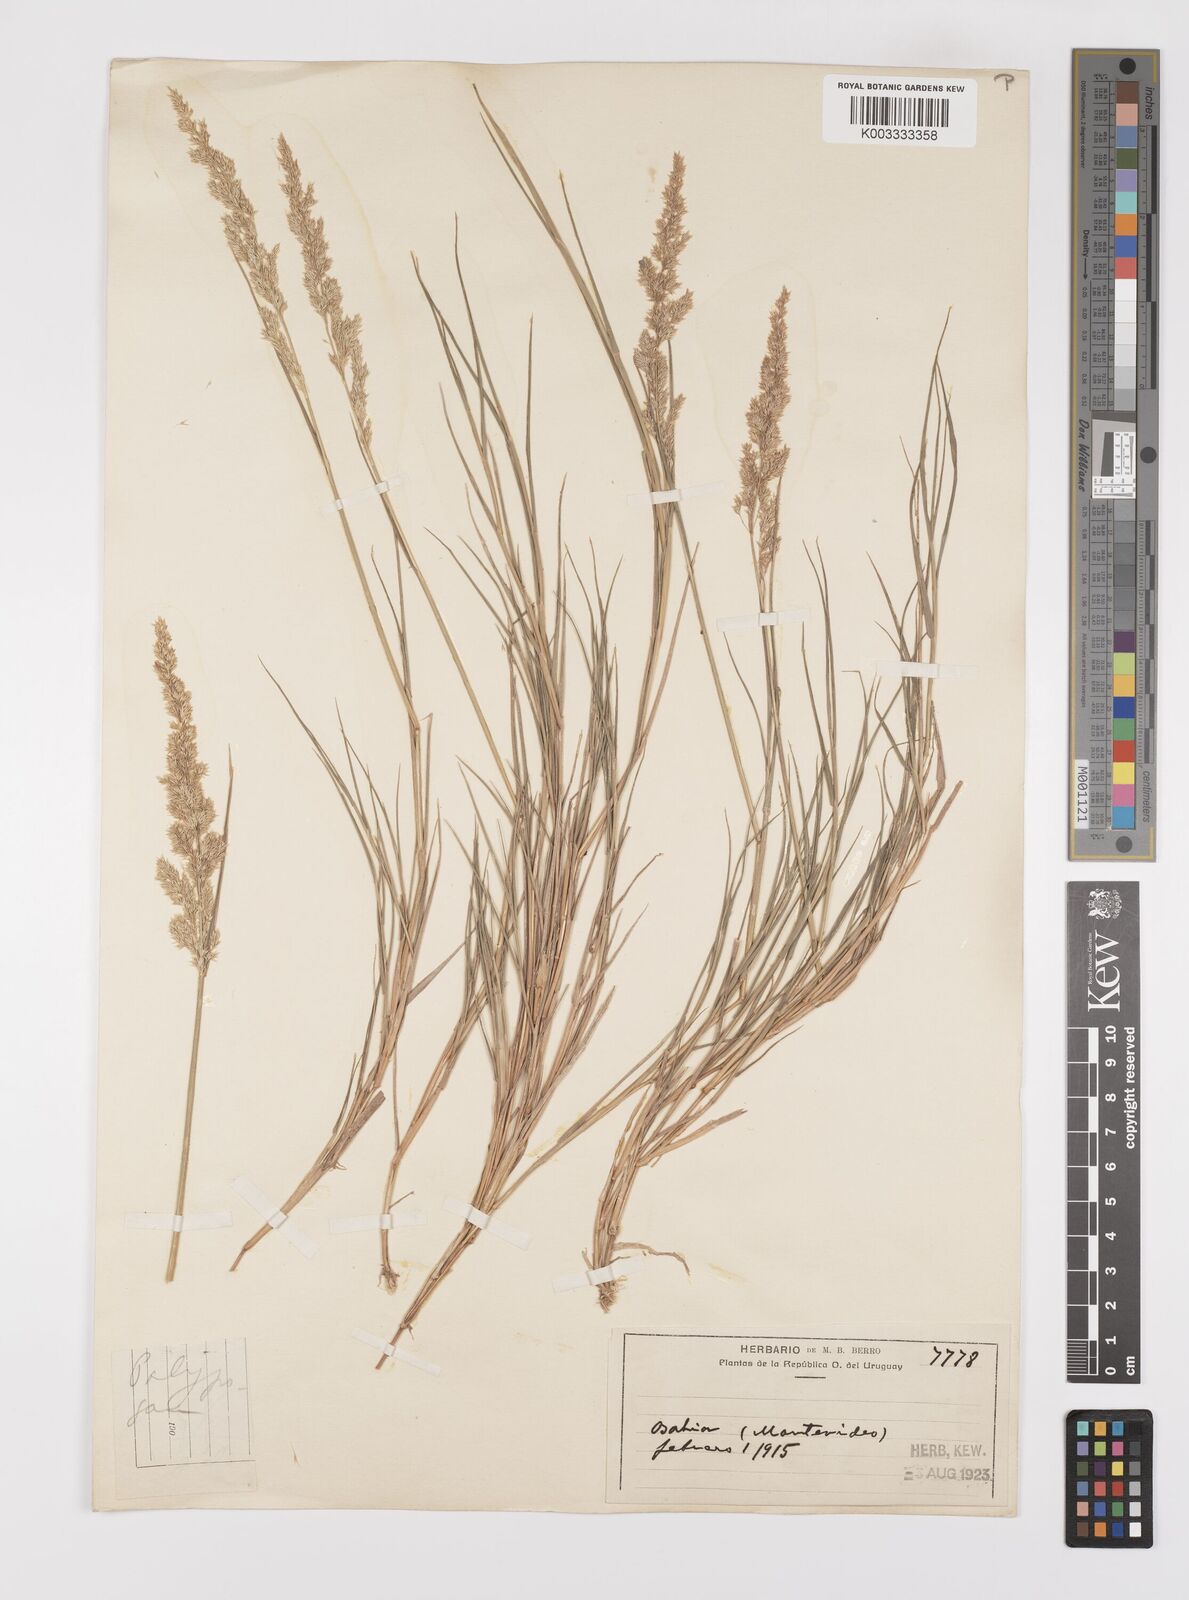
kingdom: Plantae
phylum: Tracheophyta
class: Liliopsida
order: Poales
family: Poaceae
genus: Polypogon
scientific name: Polypogon
